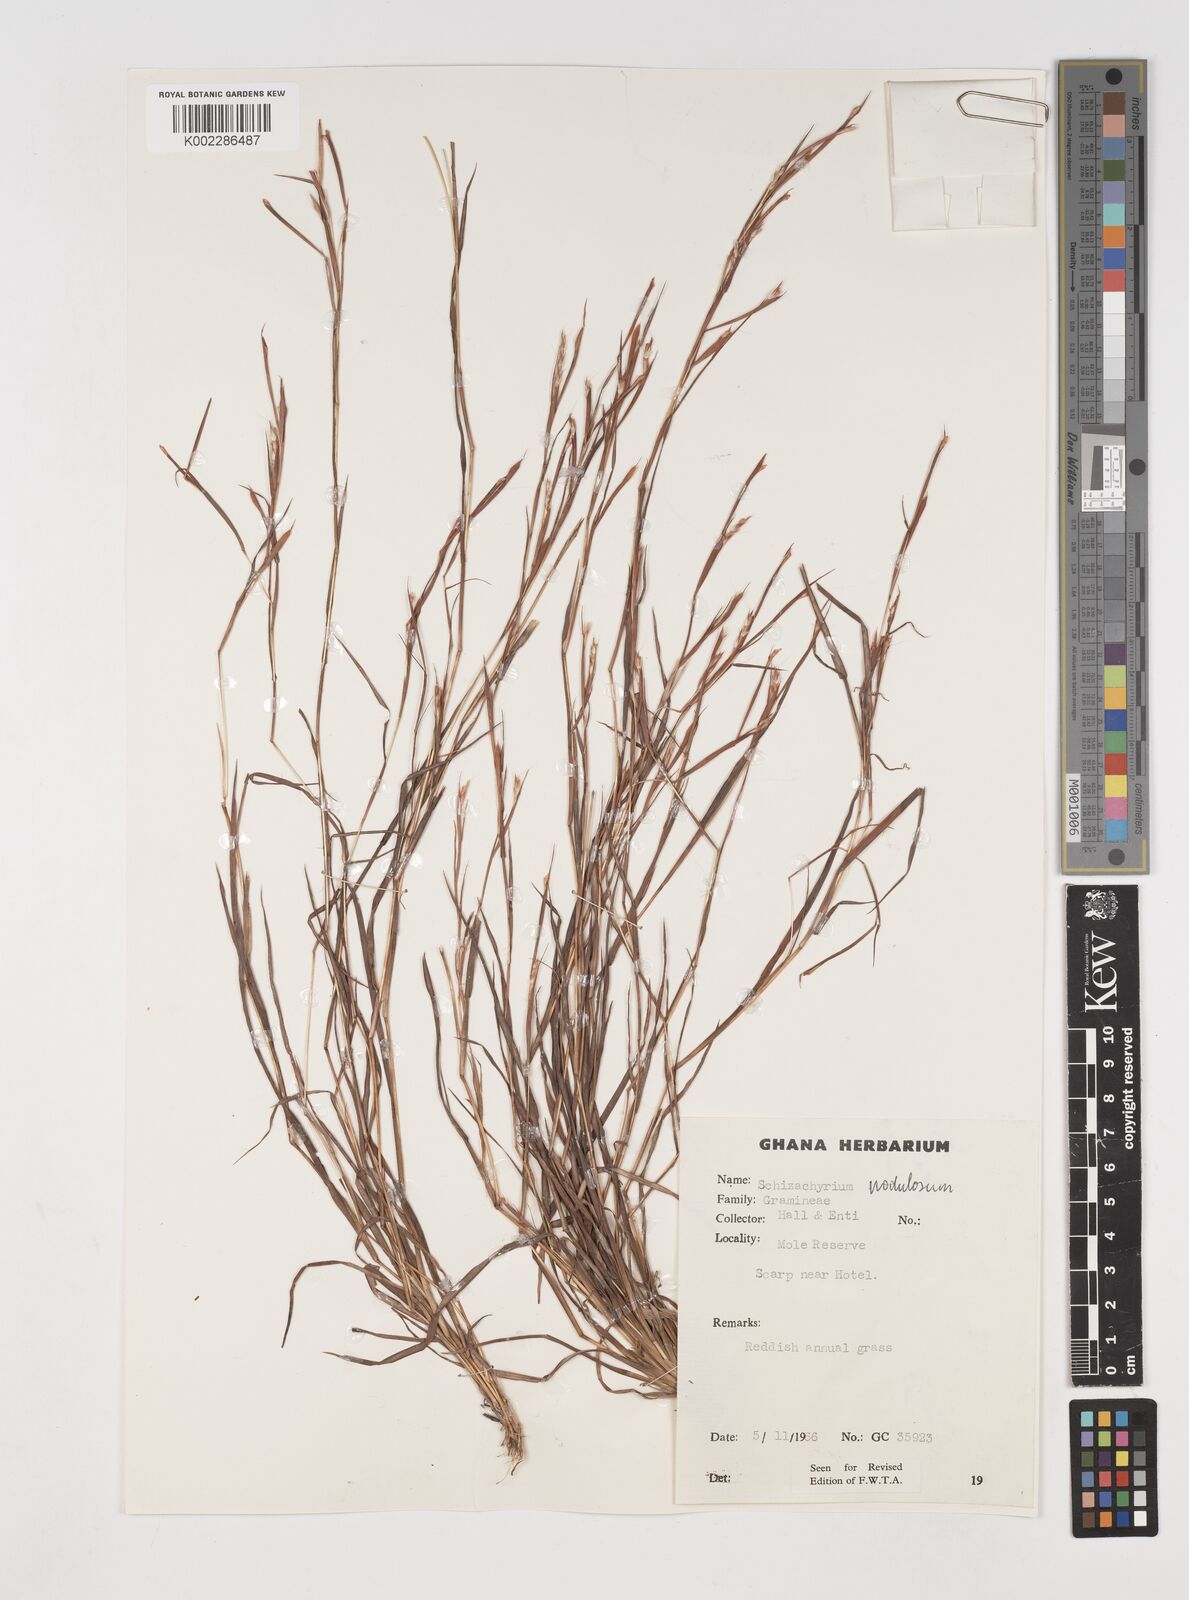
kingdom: Plantae
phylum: Tracheophyta
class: Liliopsida
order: Poales
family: Poaceae
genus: Schizachyrium
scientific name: Schizachyrium nodulosum
